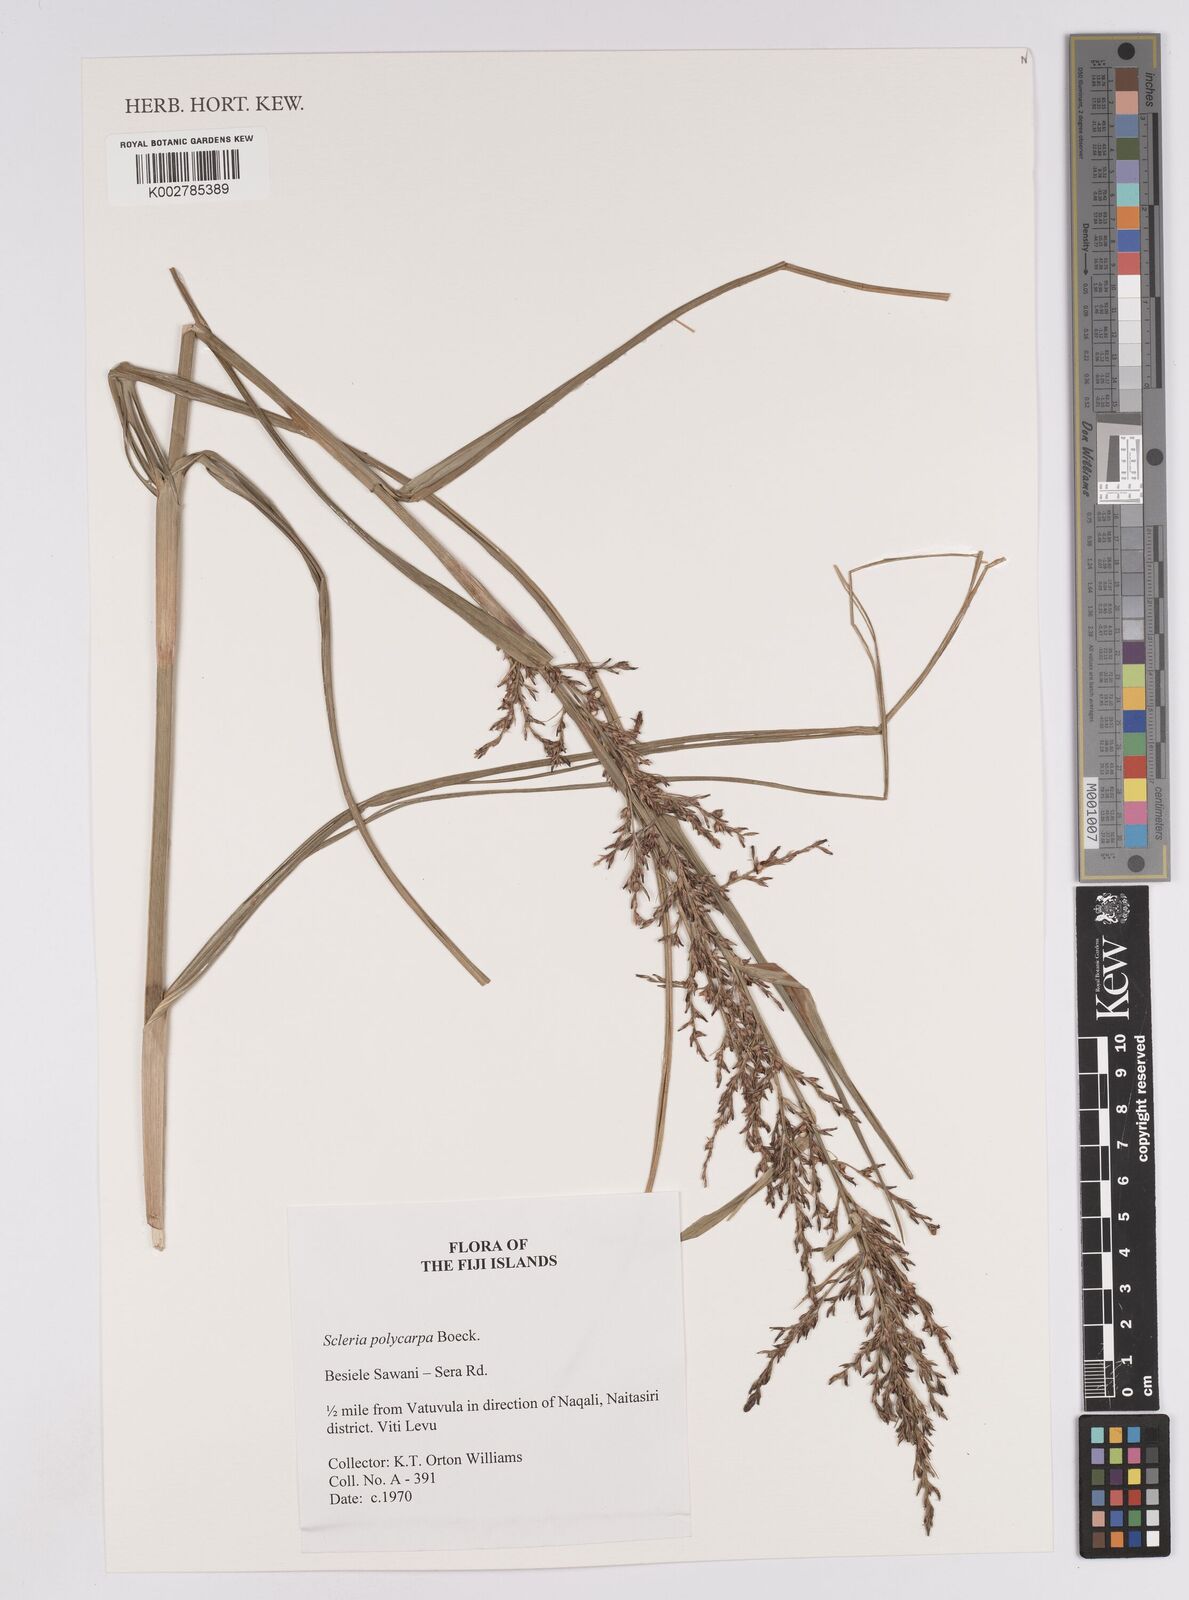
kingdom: Plantae
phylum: Tracheophyta
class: Liliopsida
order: Poales
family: Cyperaceae
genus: Scleria
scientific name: Scleria polycarpa
